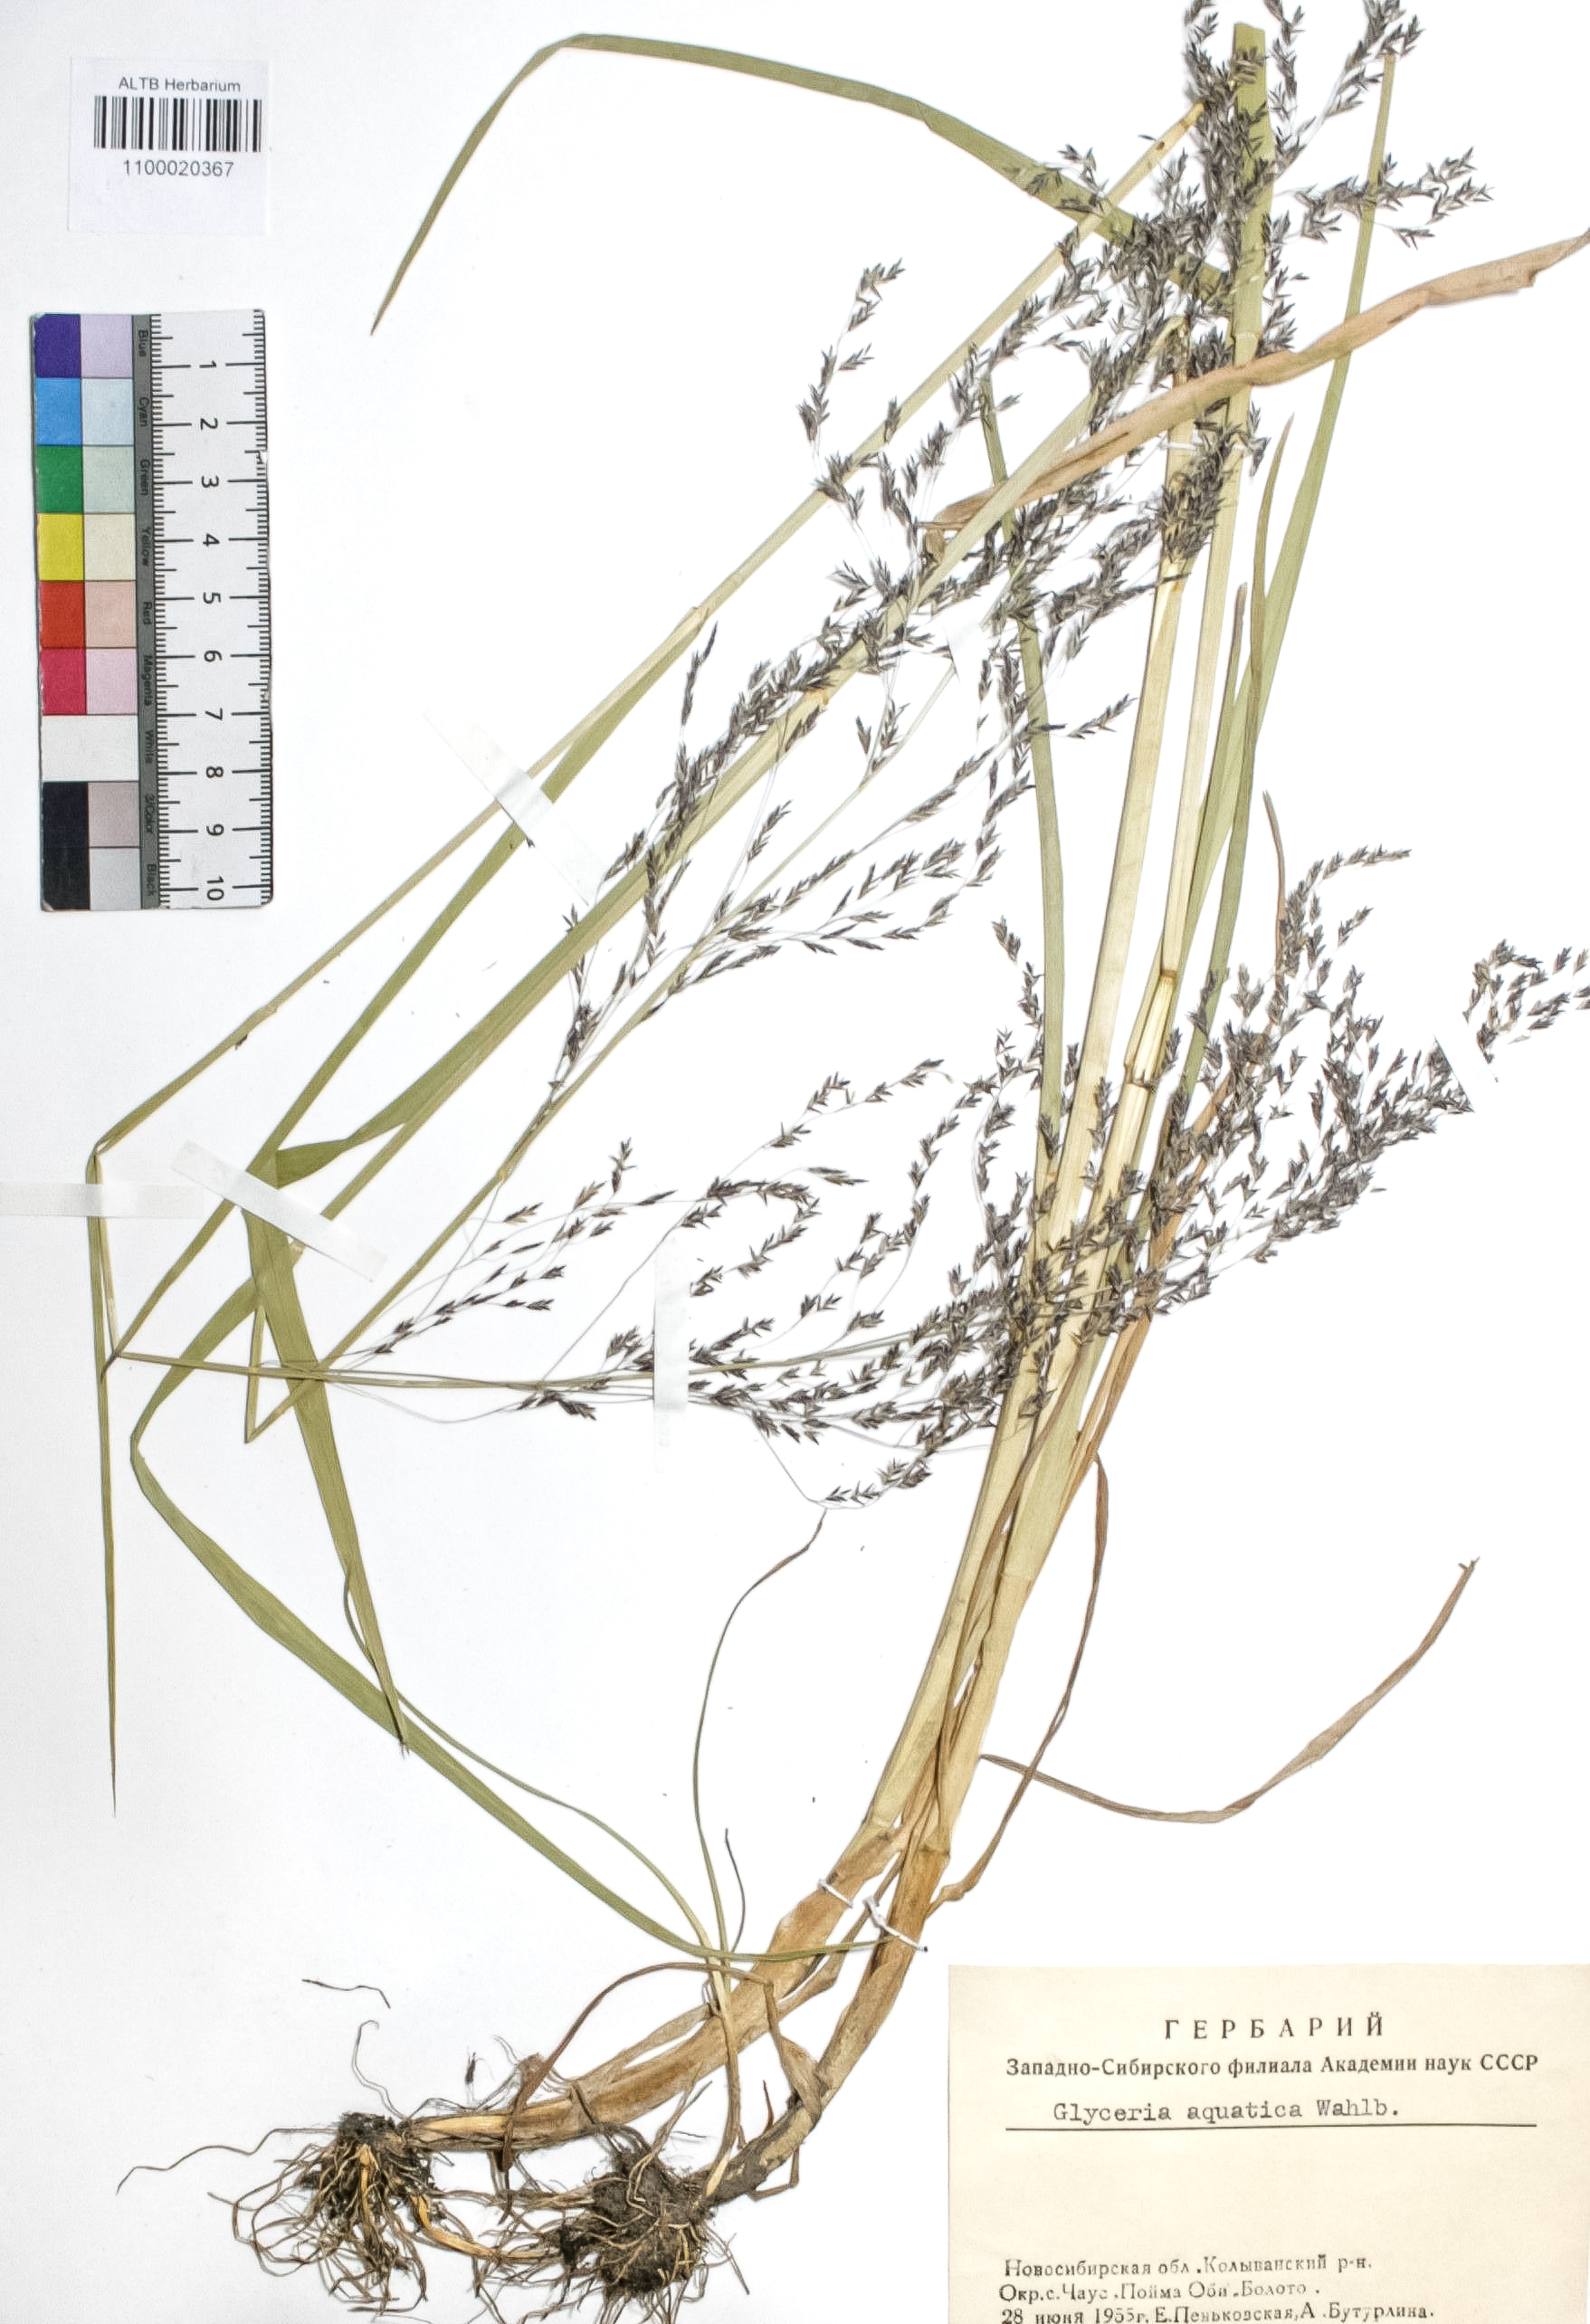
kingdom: Plantae
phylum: Tracheophyta
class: Liliopsida
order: Poales
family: Poaceae
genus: Glyceria
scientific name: Glyceria maxima
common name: Reed mannagrass
